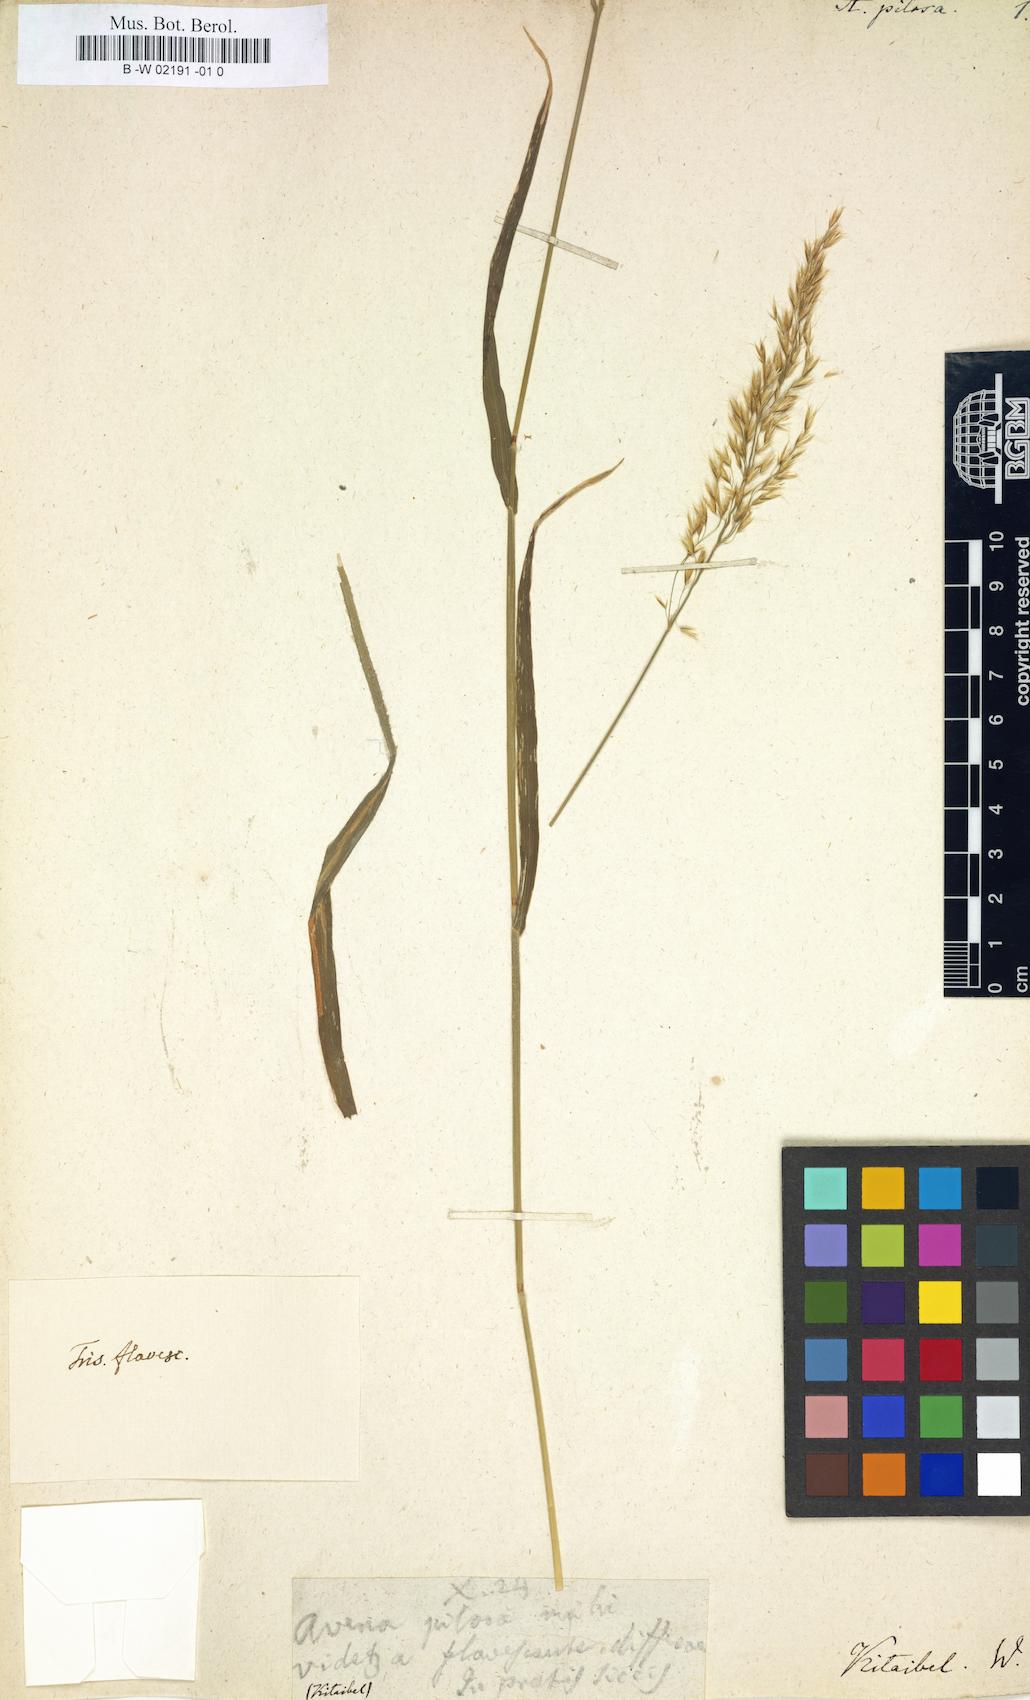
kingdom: Plantae
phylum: Tracheophyta
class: Liliopsida
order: Poales
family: Poaceae
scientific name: Poaceae
